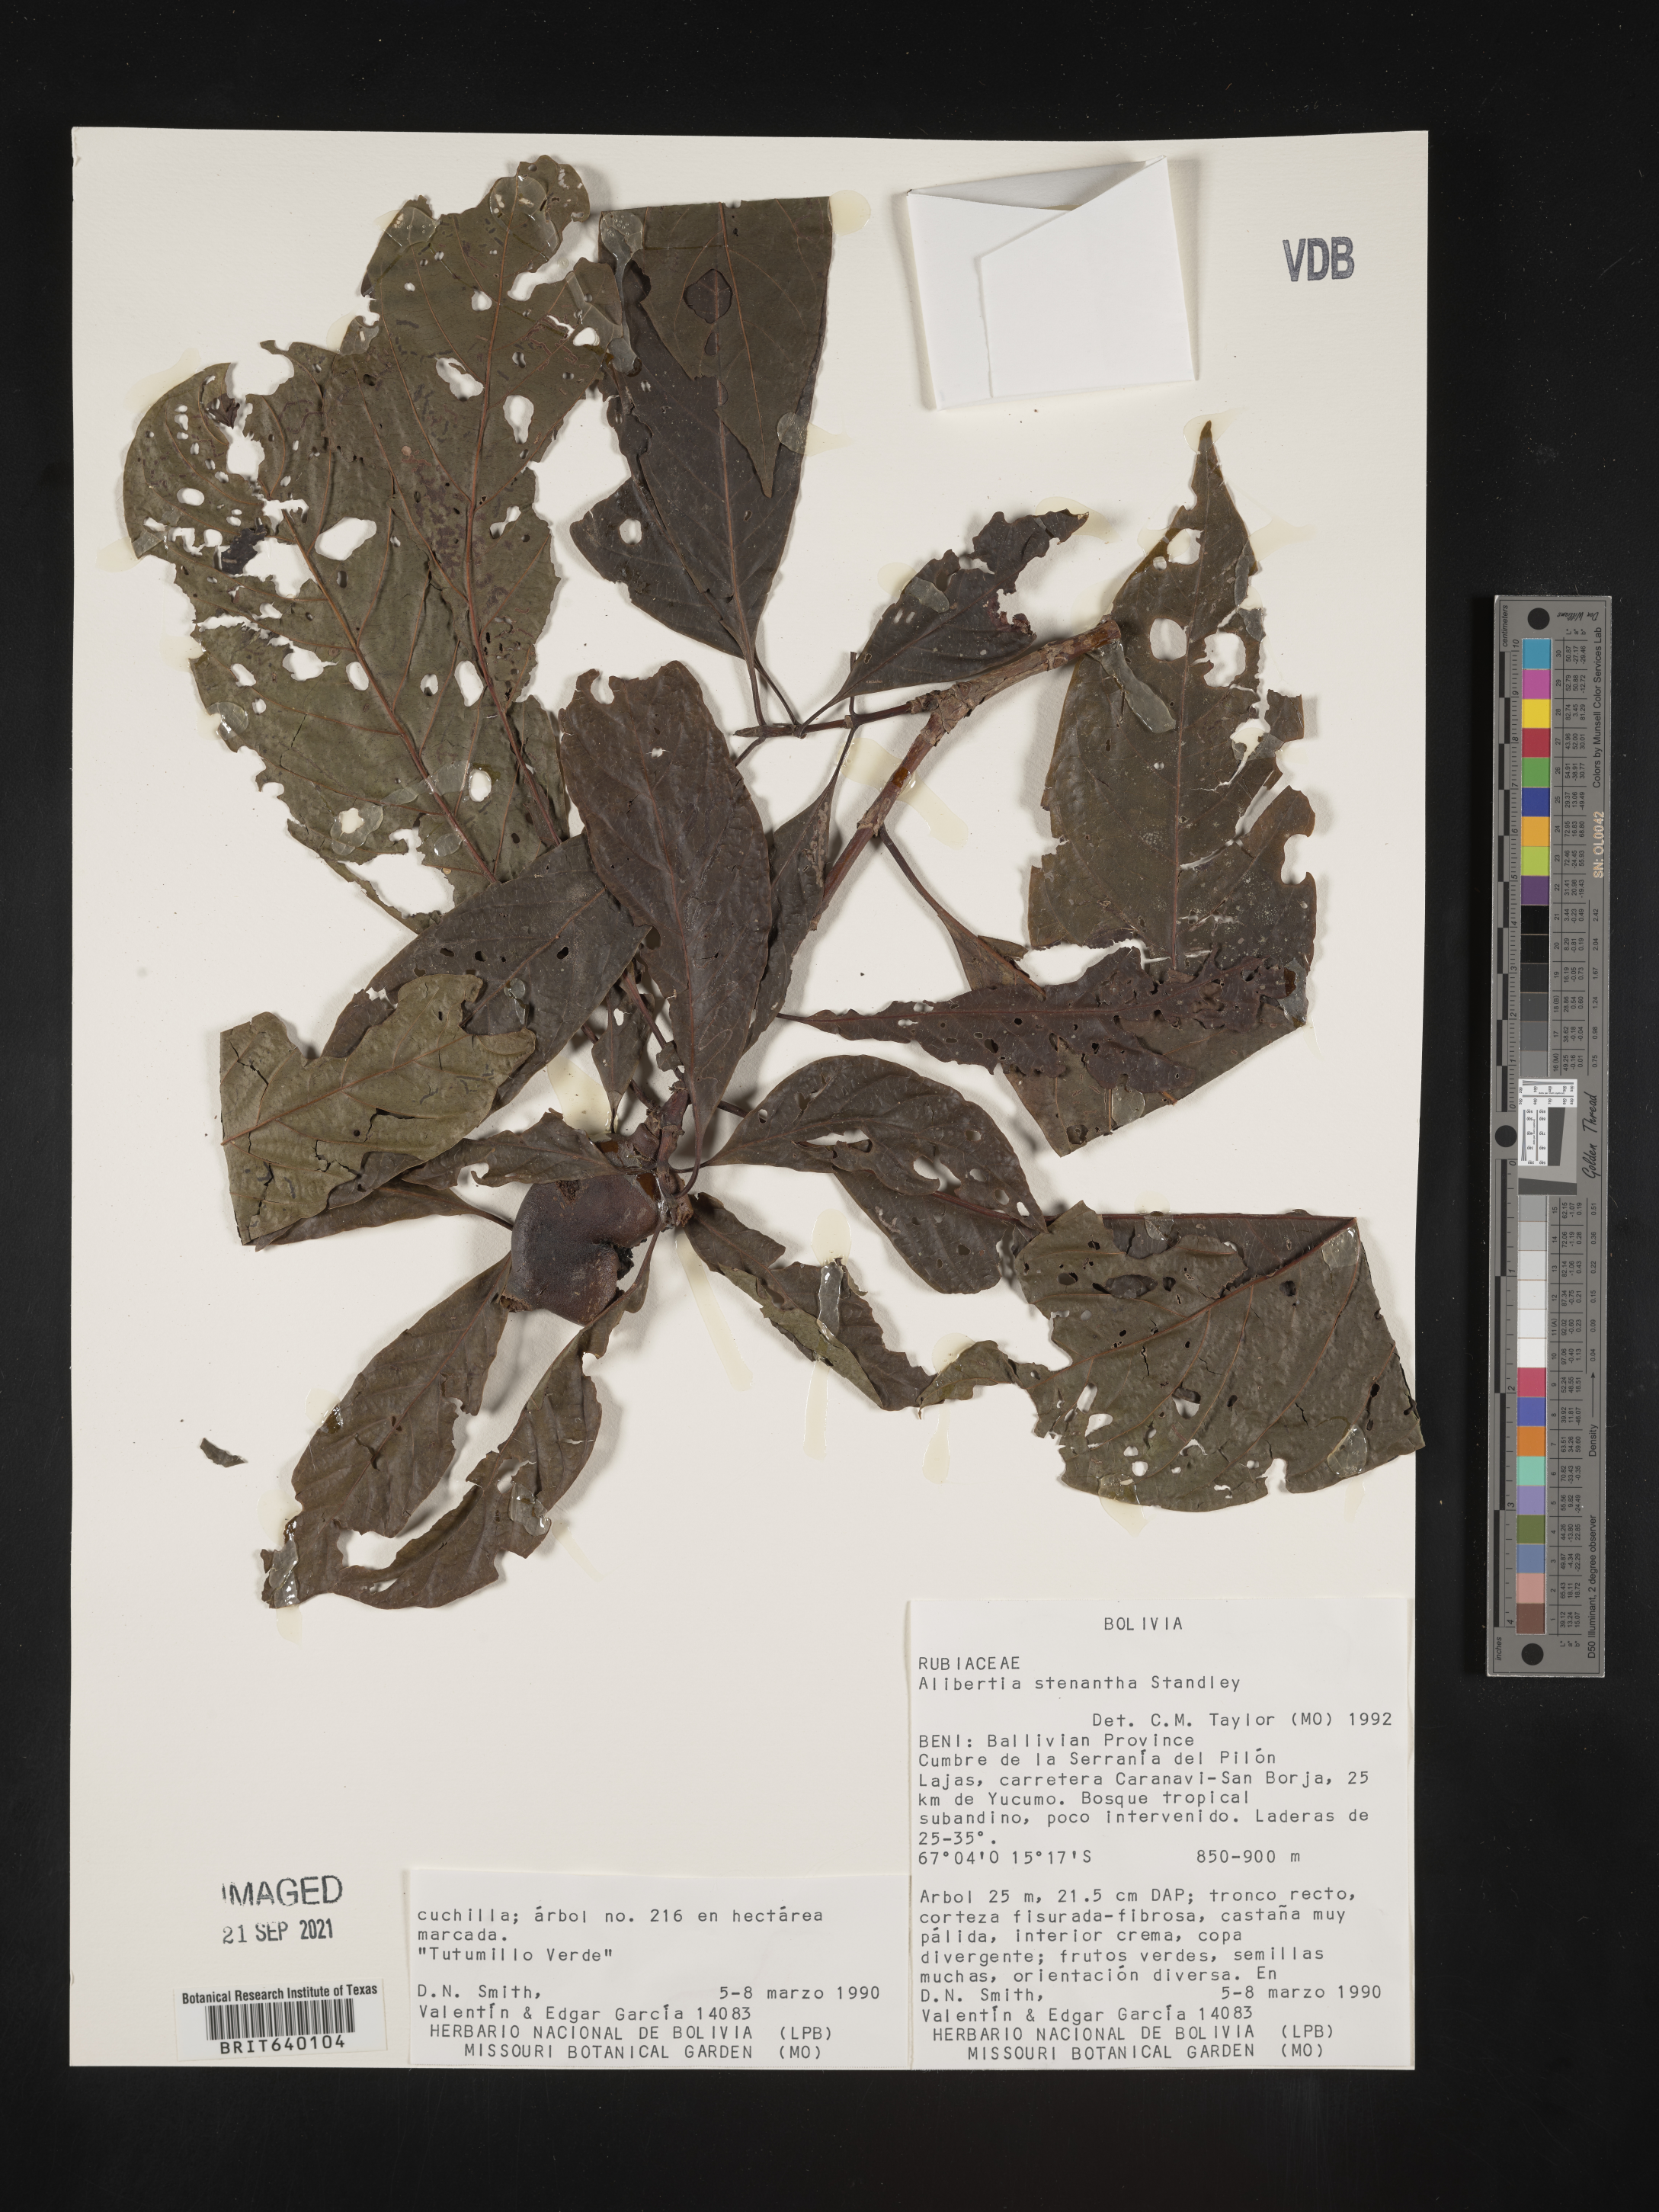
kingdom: Plantae
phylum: Tracheophyta
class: Magnoliopsida
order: Gentianales
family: Rubiaceae
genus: Alibertia
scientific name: Alibertia
